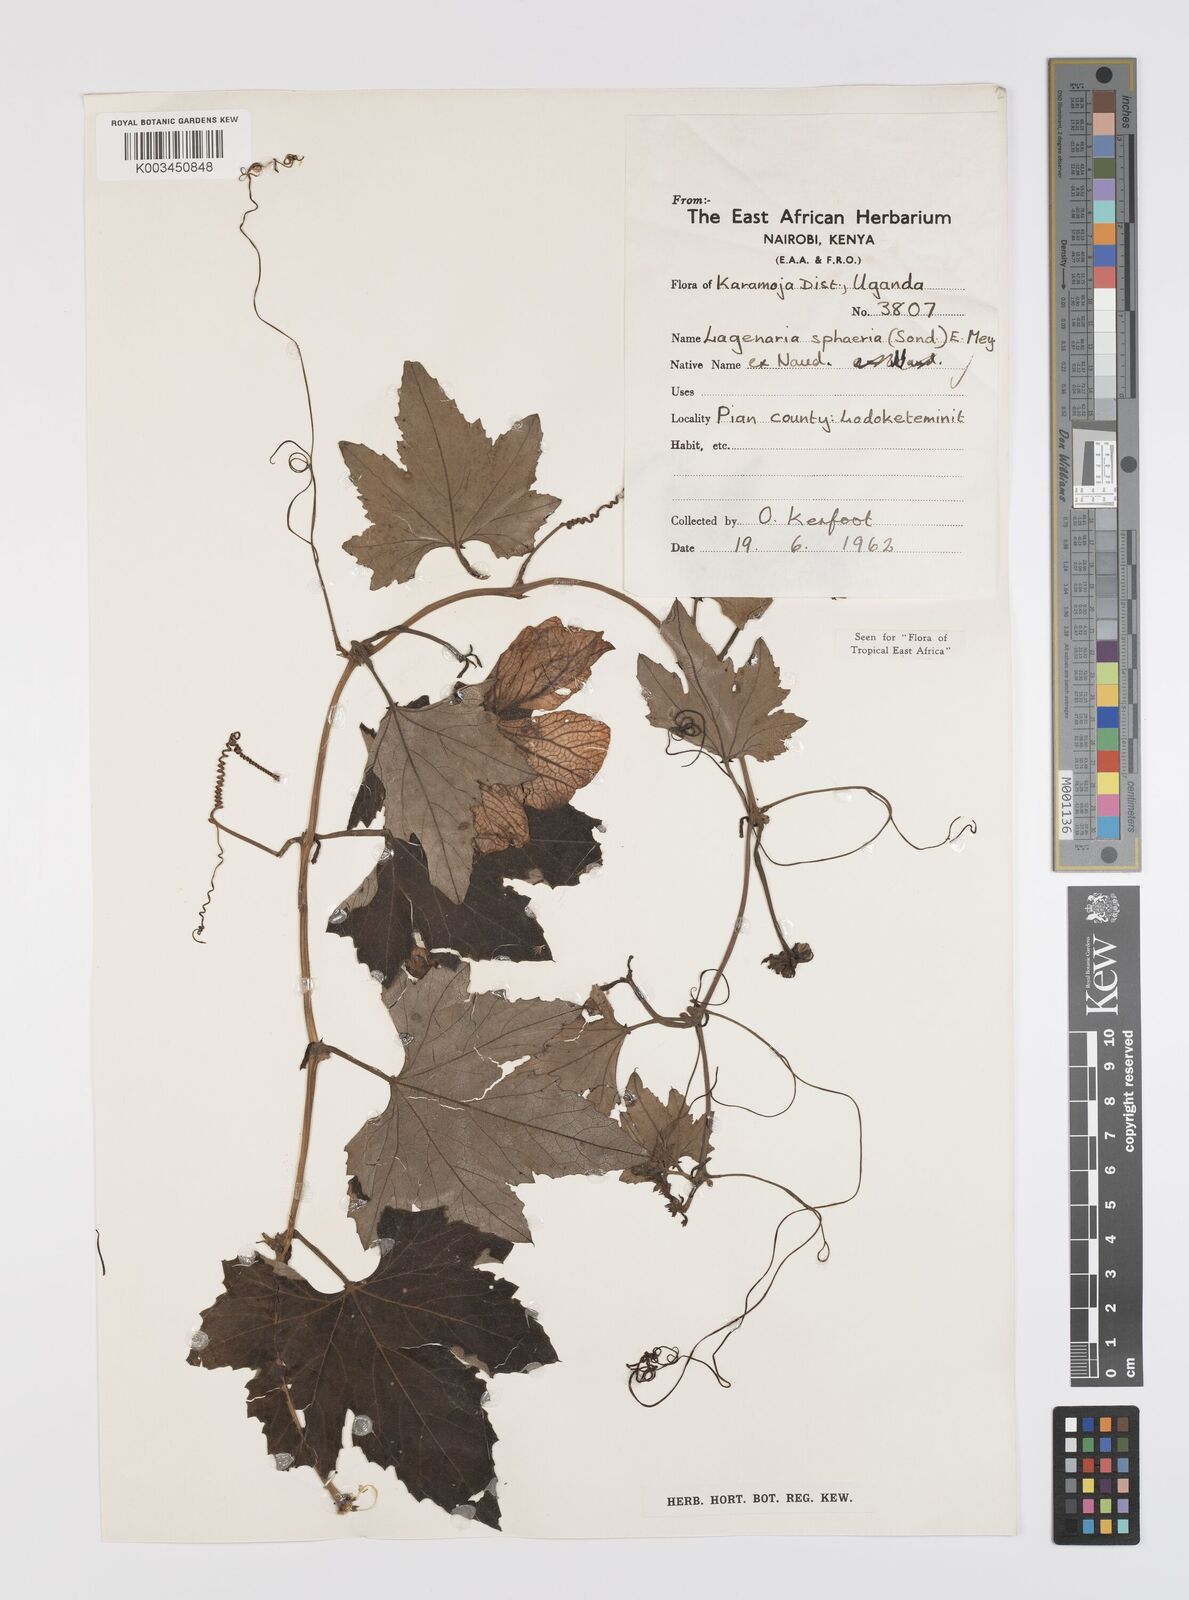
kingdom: Plantae
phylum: Tracheophyta
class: Magnoliopsida
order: Cucurbitales
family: Cucurbitaceae
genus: Lagenaria
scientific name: Lagenaria sphaerica
